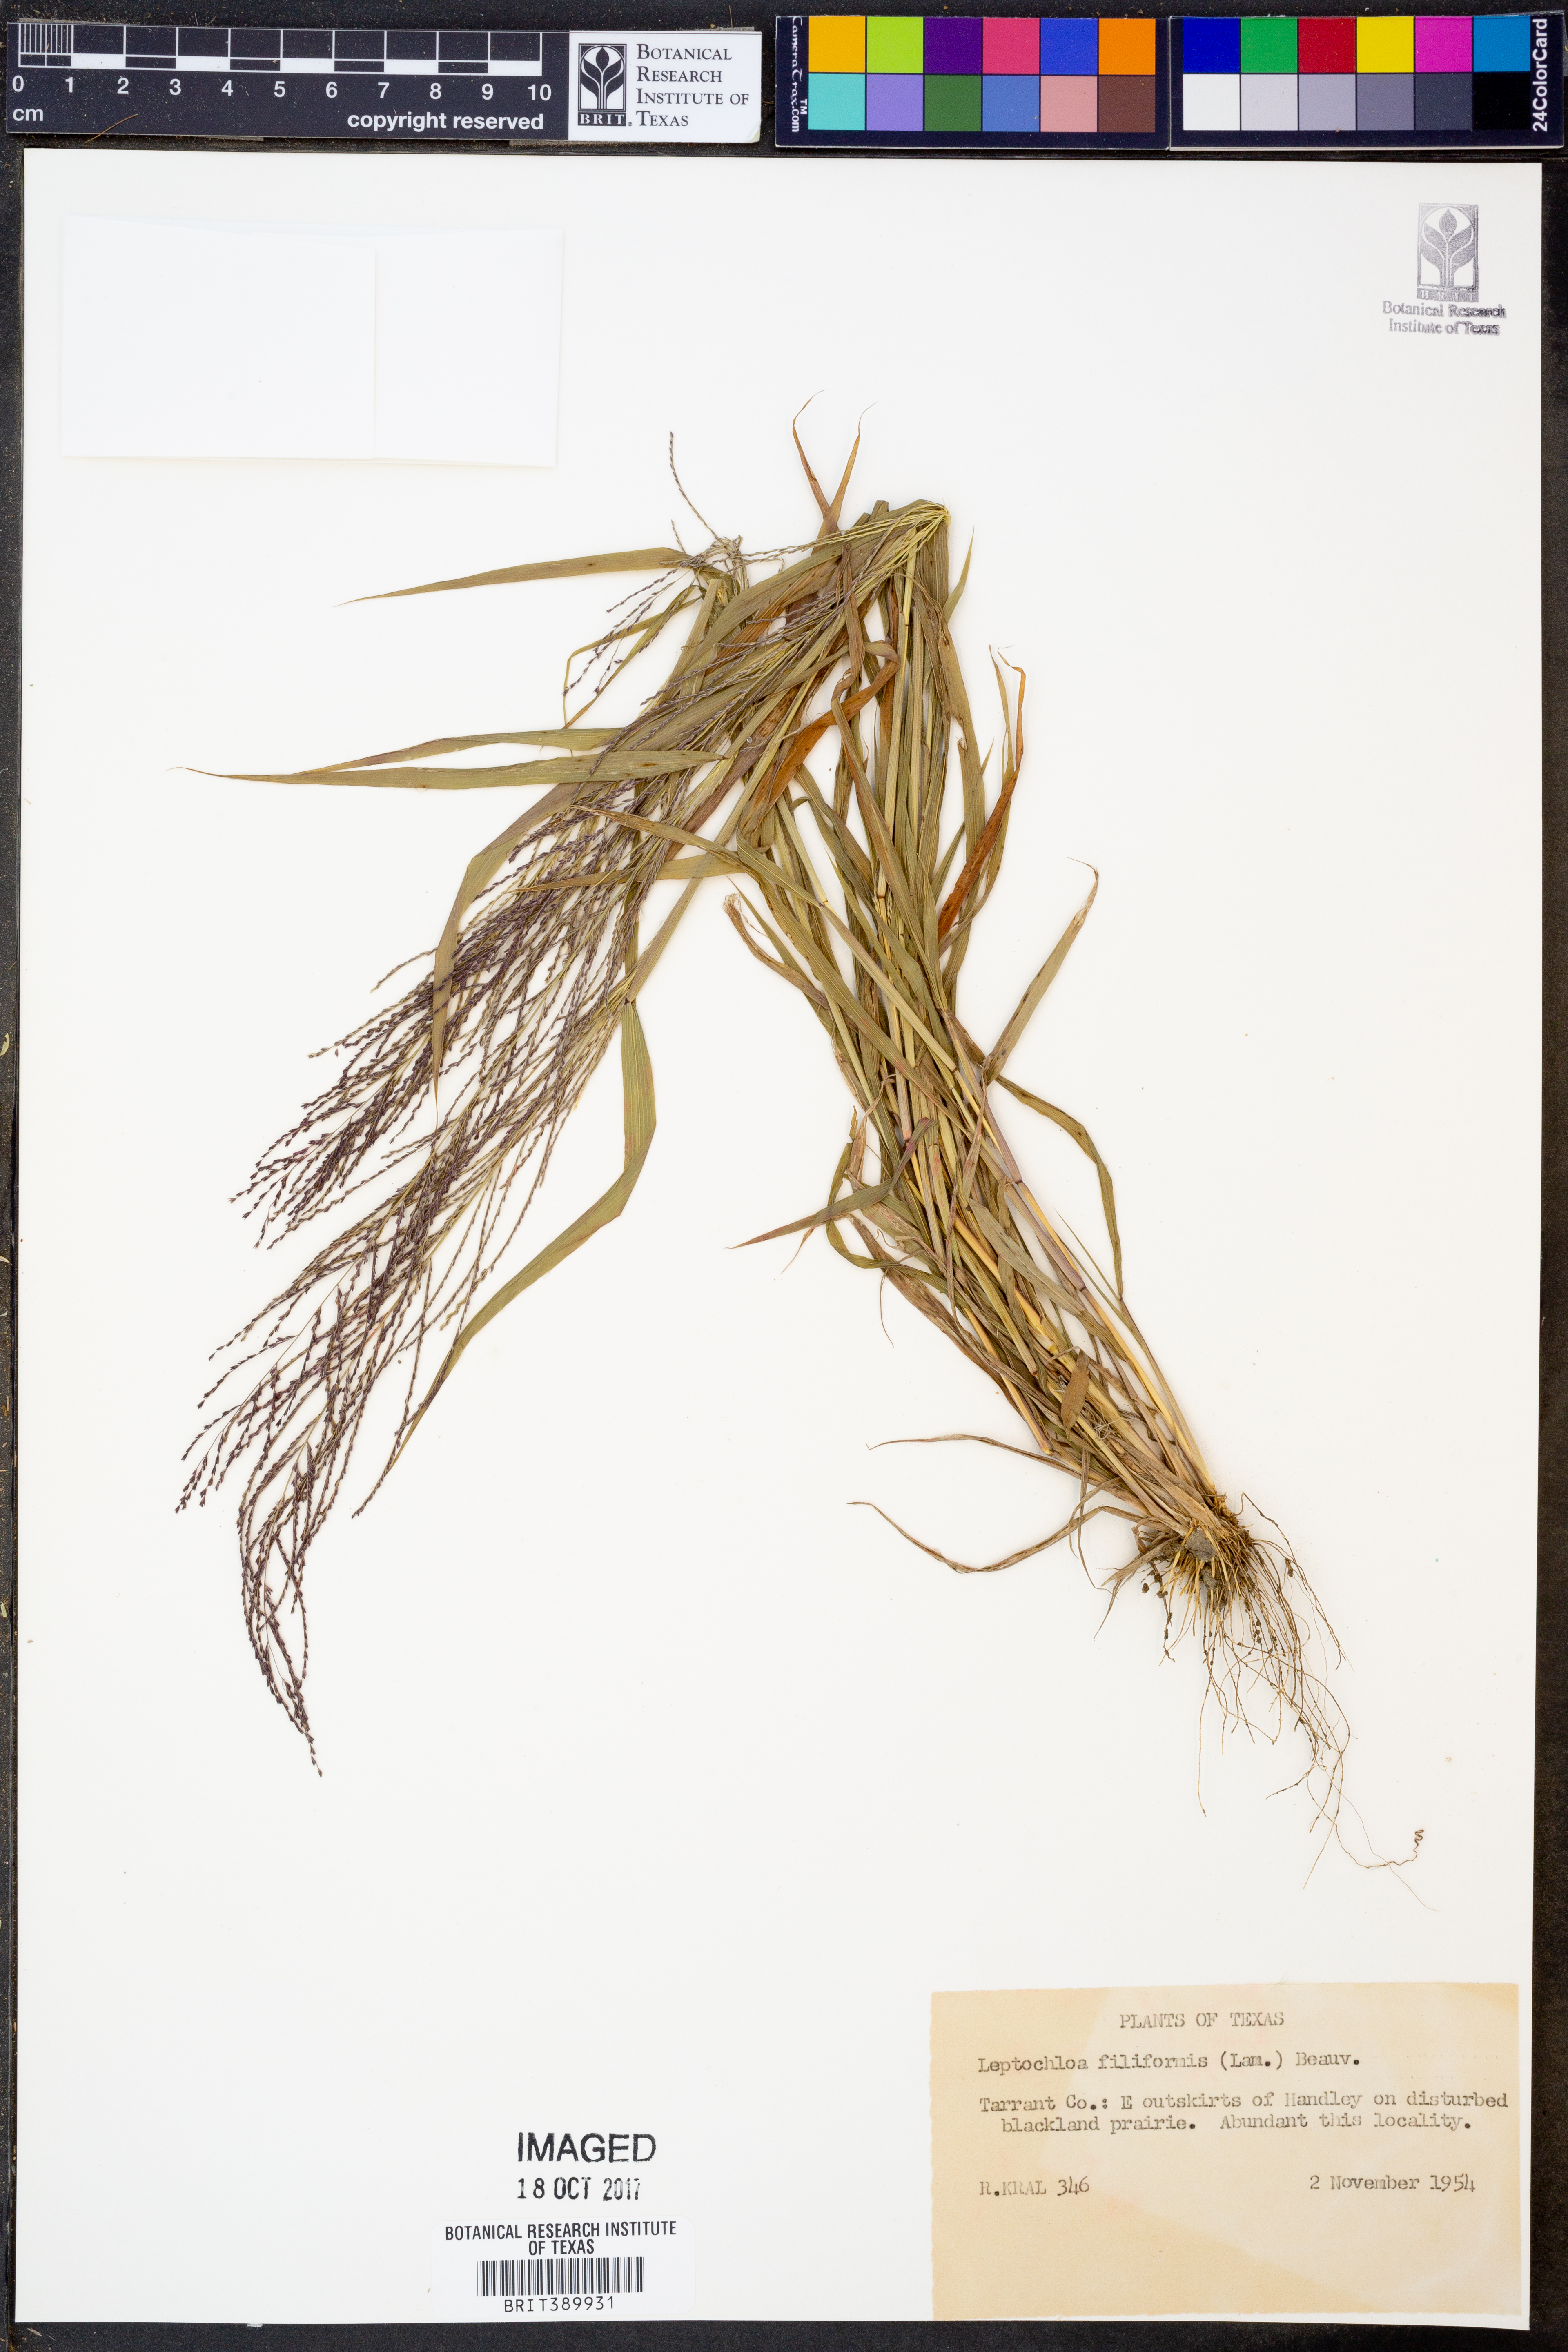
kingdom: Plantae
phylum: Tracheophyta
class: Liliopsida
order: Poales
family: Poaceae
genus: Leptochloa
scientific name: Leptochloa mucronata
